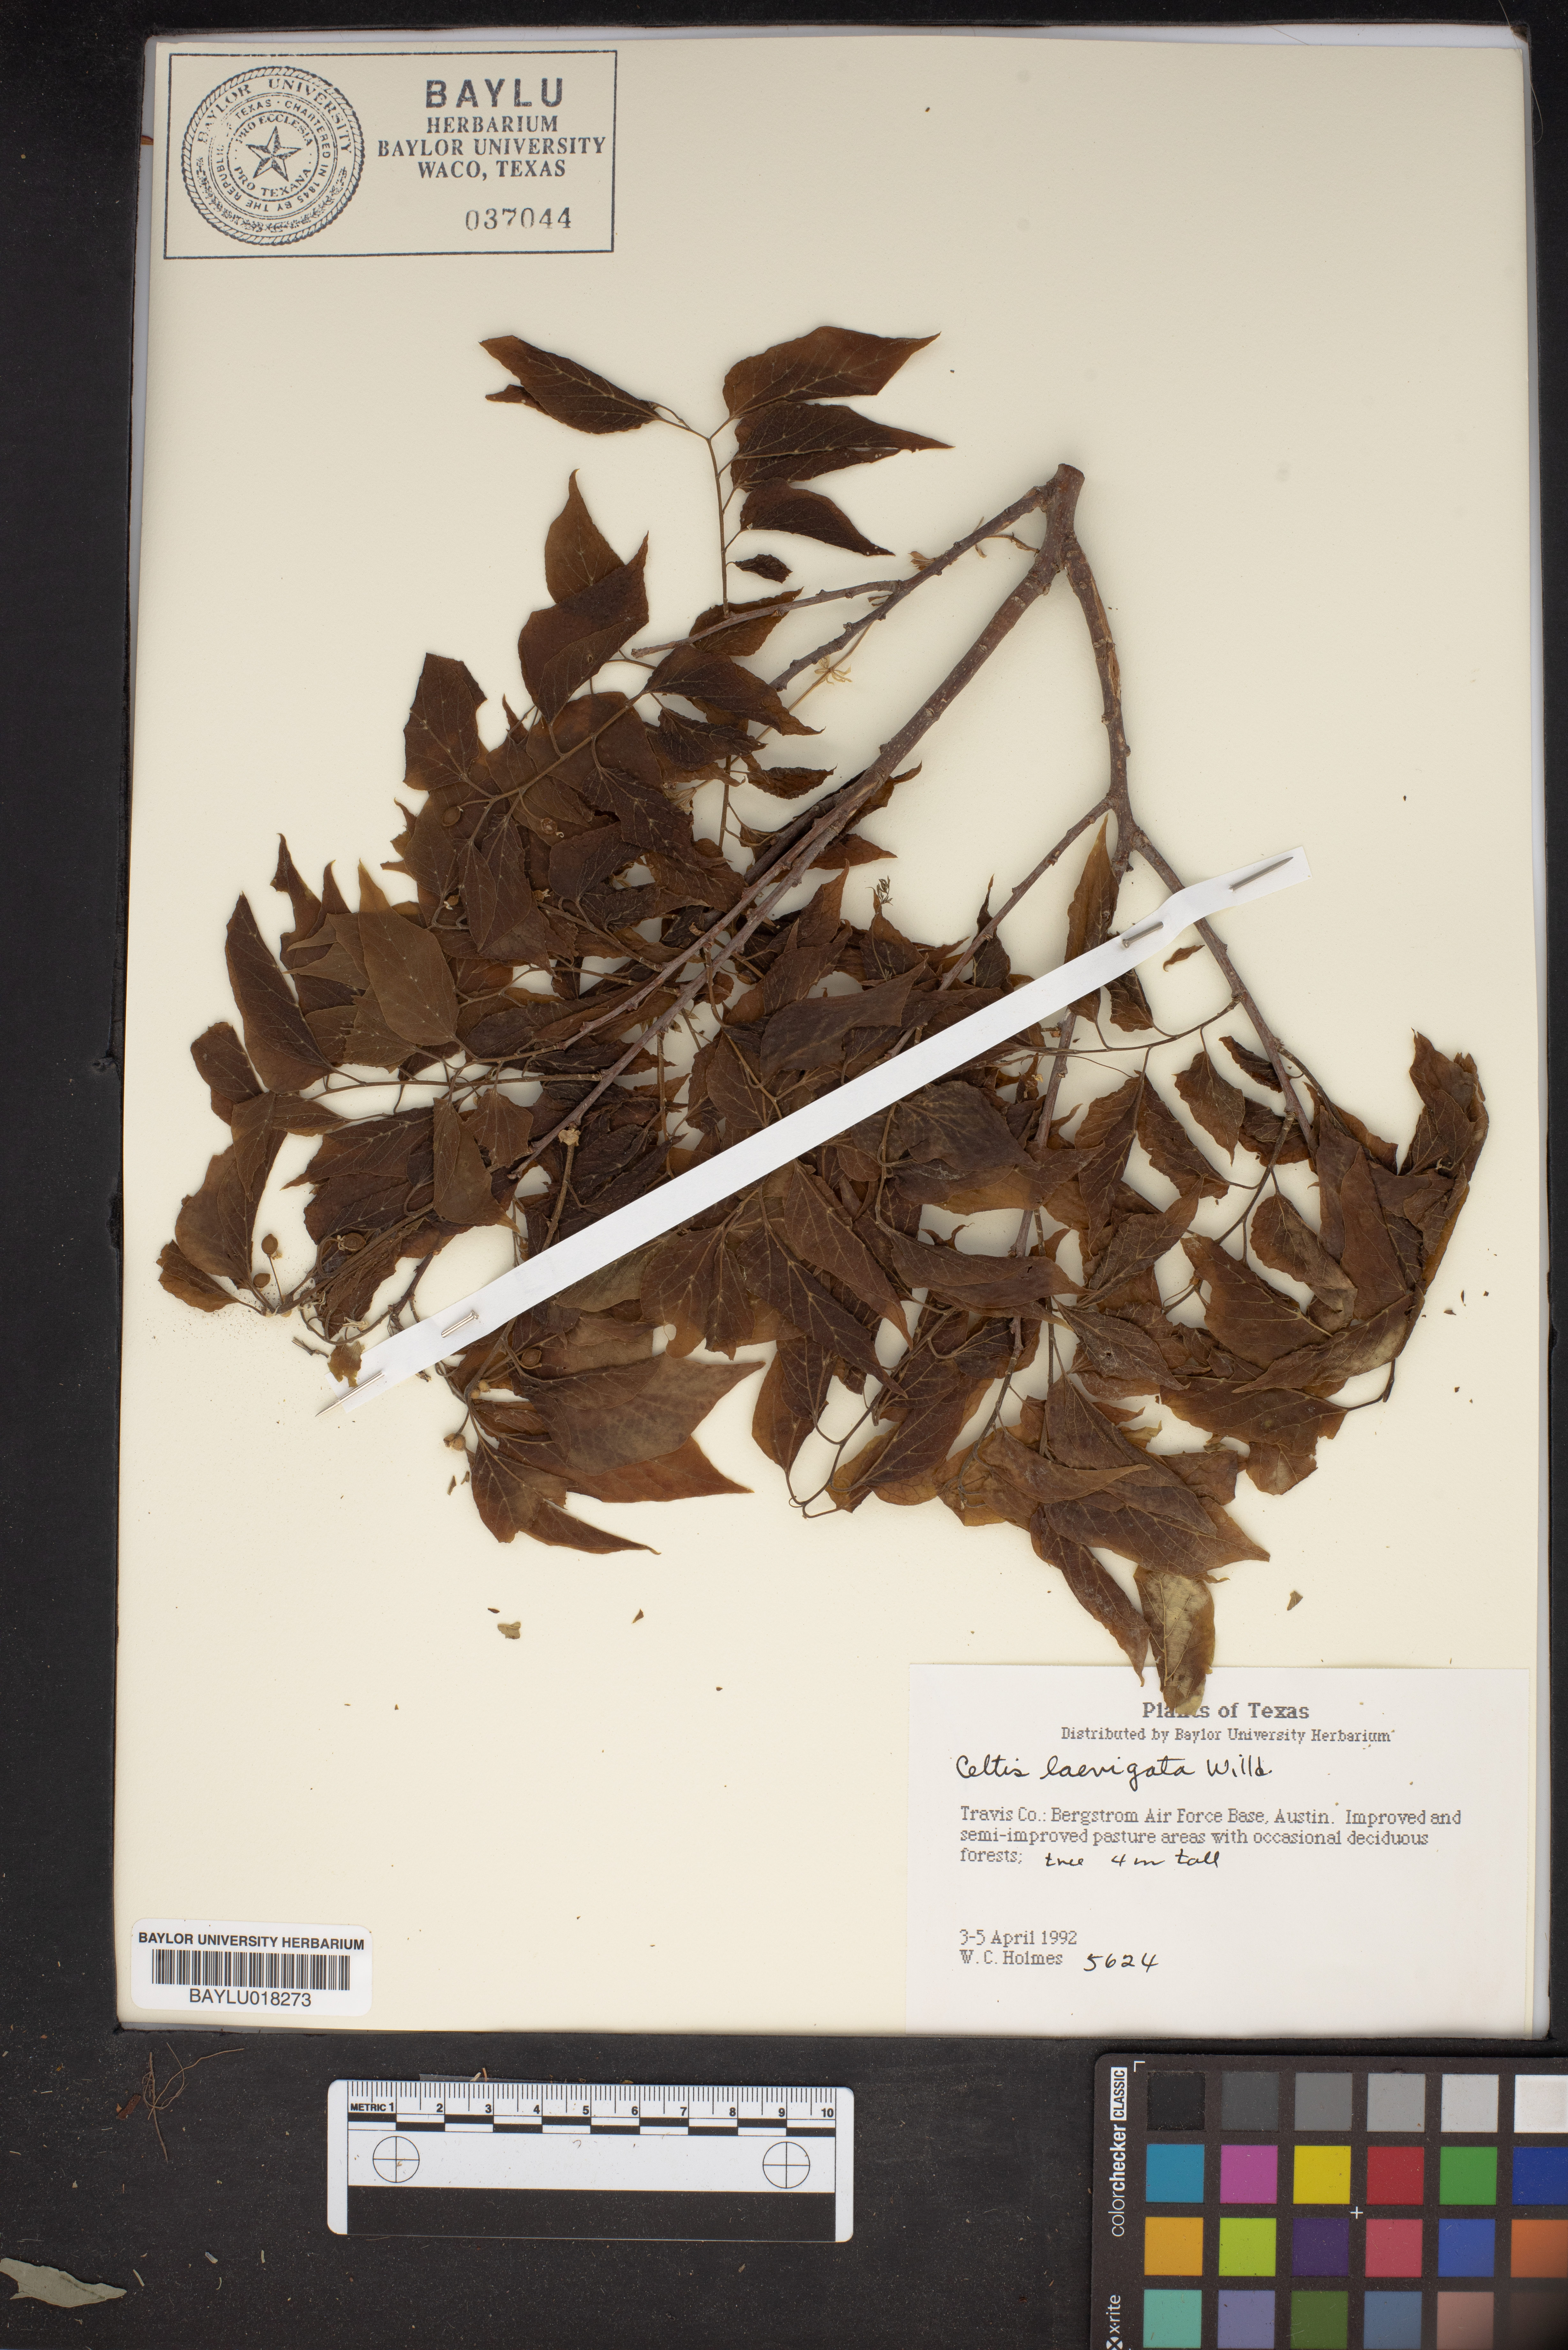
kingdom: Plantae
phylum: Tracheophyta
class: Magnoliopsida
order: Rosales
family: Cannabaceae
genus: Celtis
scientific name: Celtis laevigata
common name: Sugarberry
